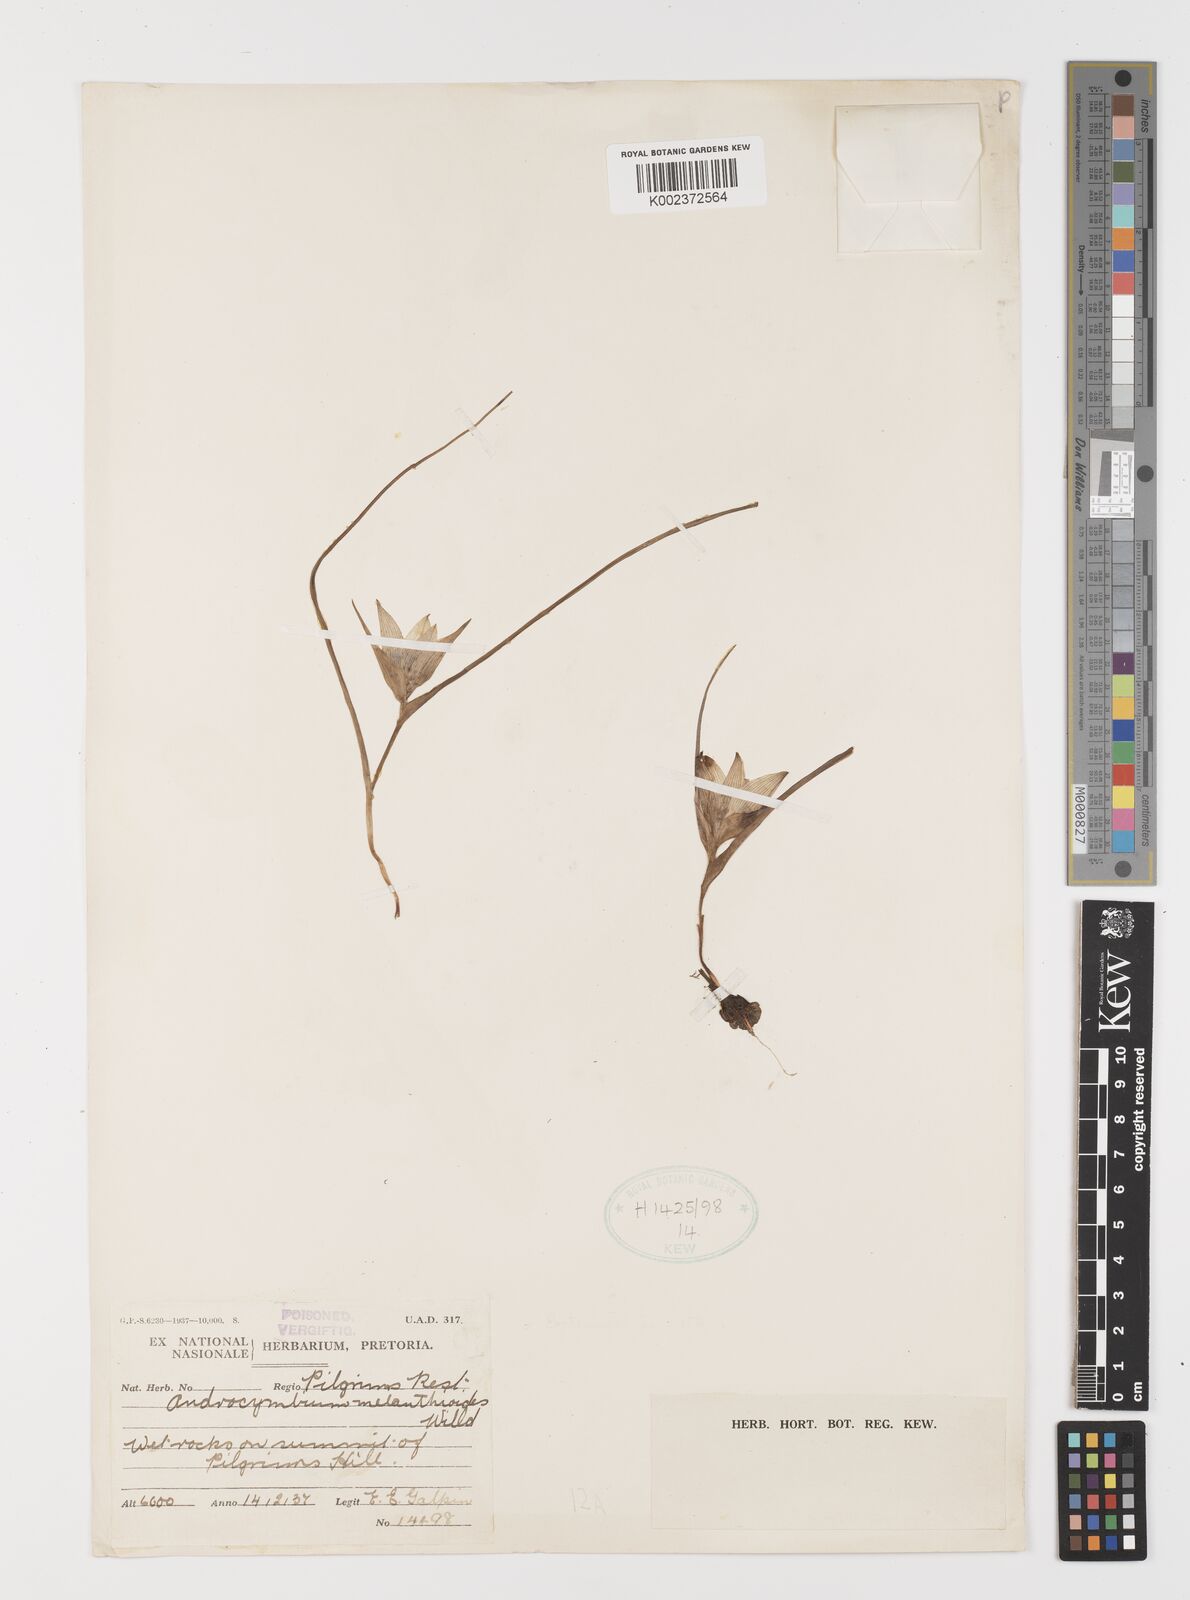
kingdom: Plantae
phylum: Tracheophyta
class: Liliopsida
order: Liliales
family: Colchicaceae
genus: Colchicum
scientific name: Colchicum melanthioides
